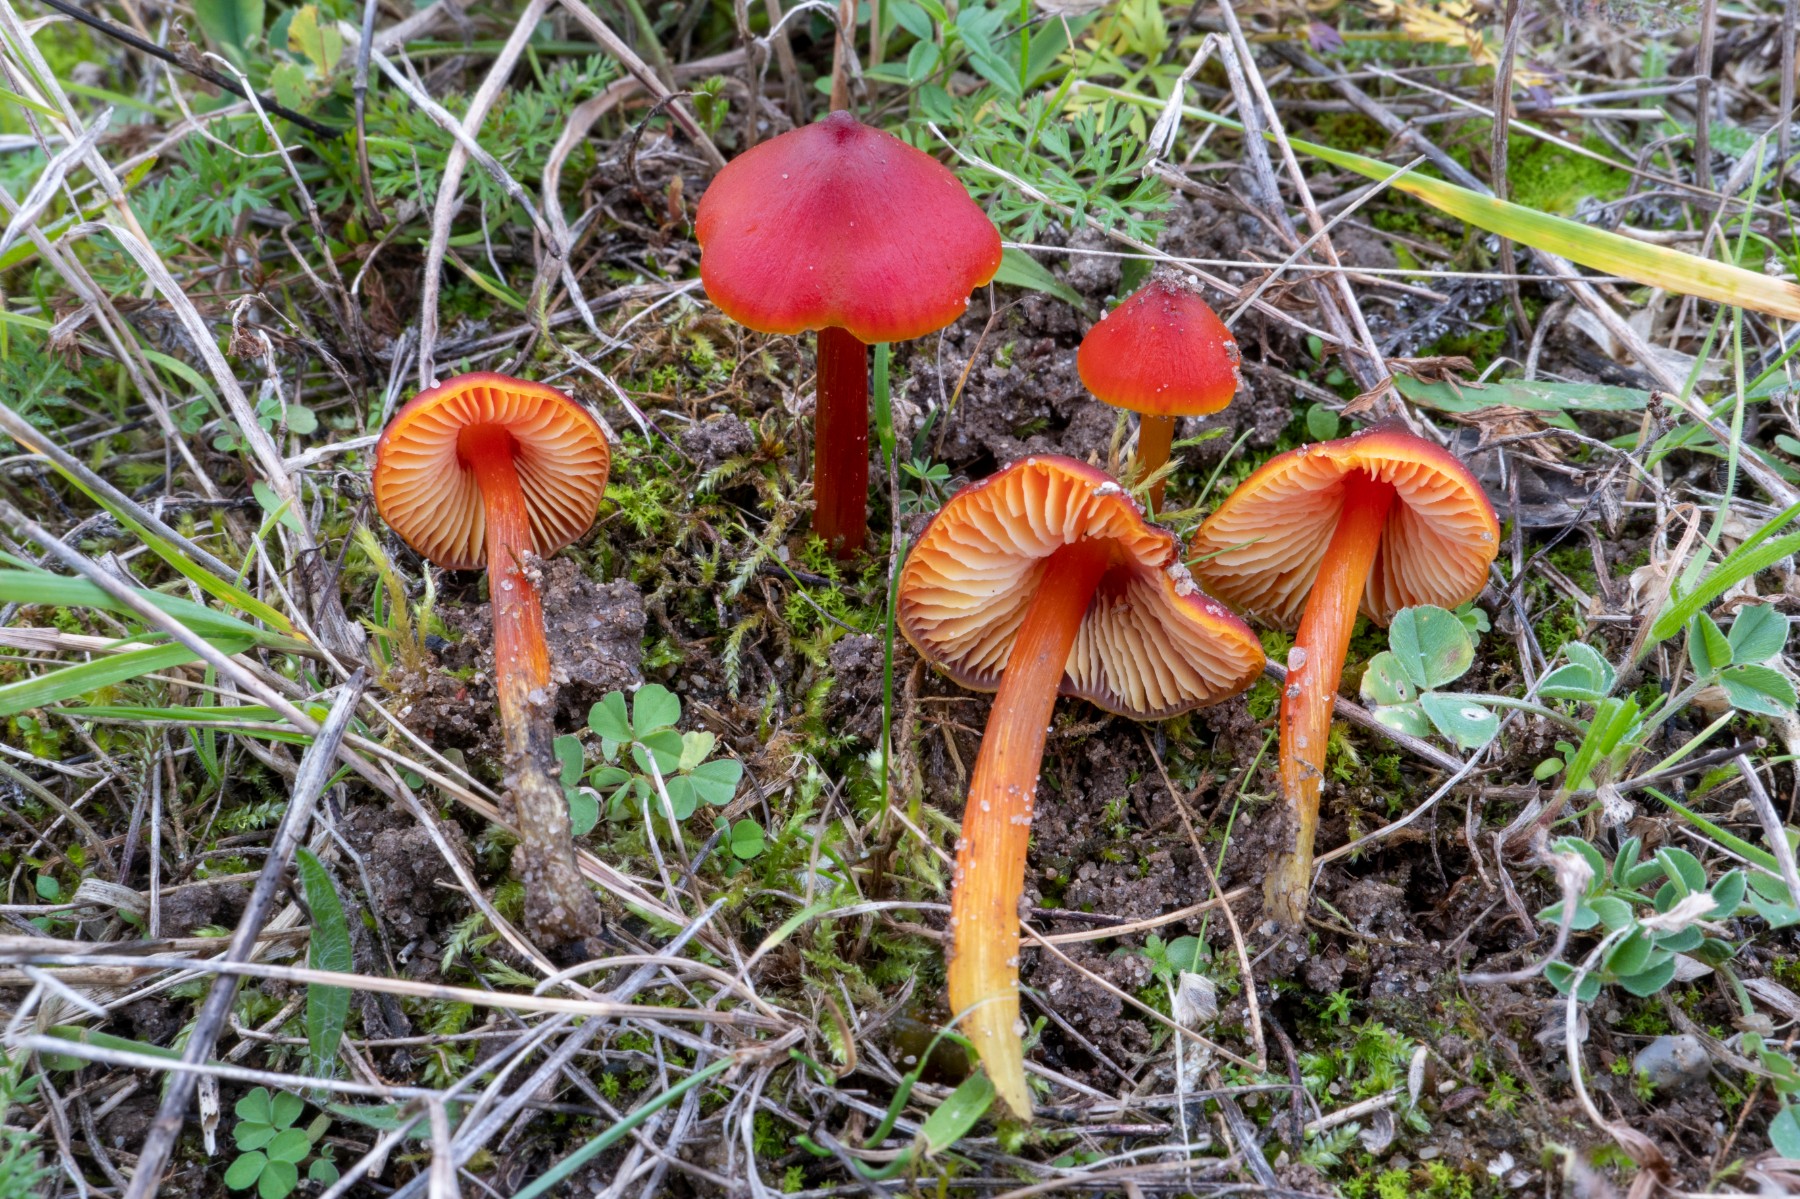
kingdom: Fungi
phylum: Basidiomycota
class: Agaricomycetes
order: Agaricales
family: Hygrophoraceae
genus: Hygrocybe
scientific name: Hygrocybe conica
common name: kegle-vokshat
